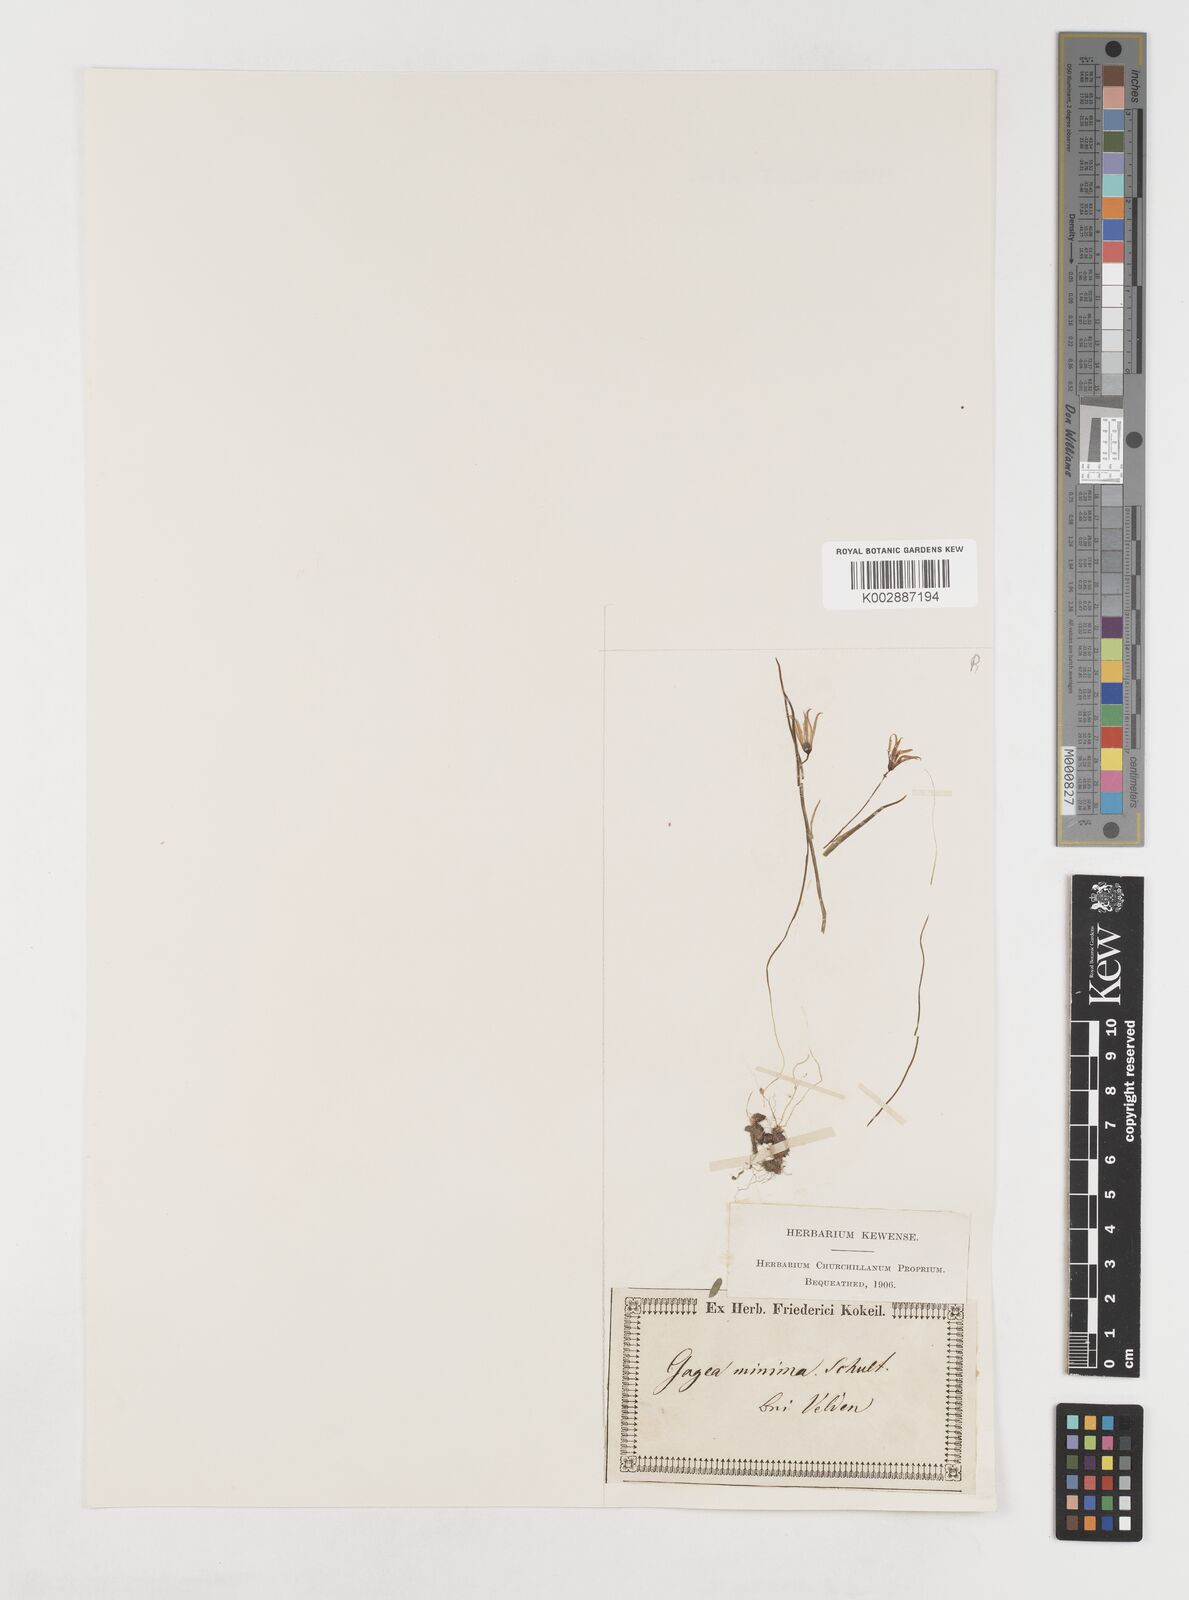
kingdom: Plantae
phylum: Tracheophyta
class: Liliopsida
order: Liliales
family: Liliaceae
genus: Gagea
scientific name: Gagea minima
